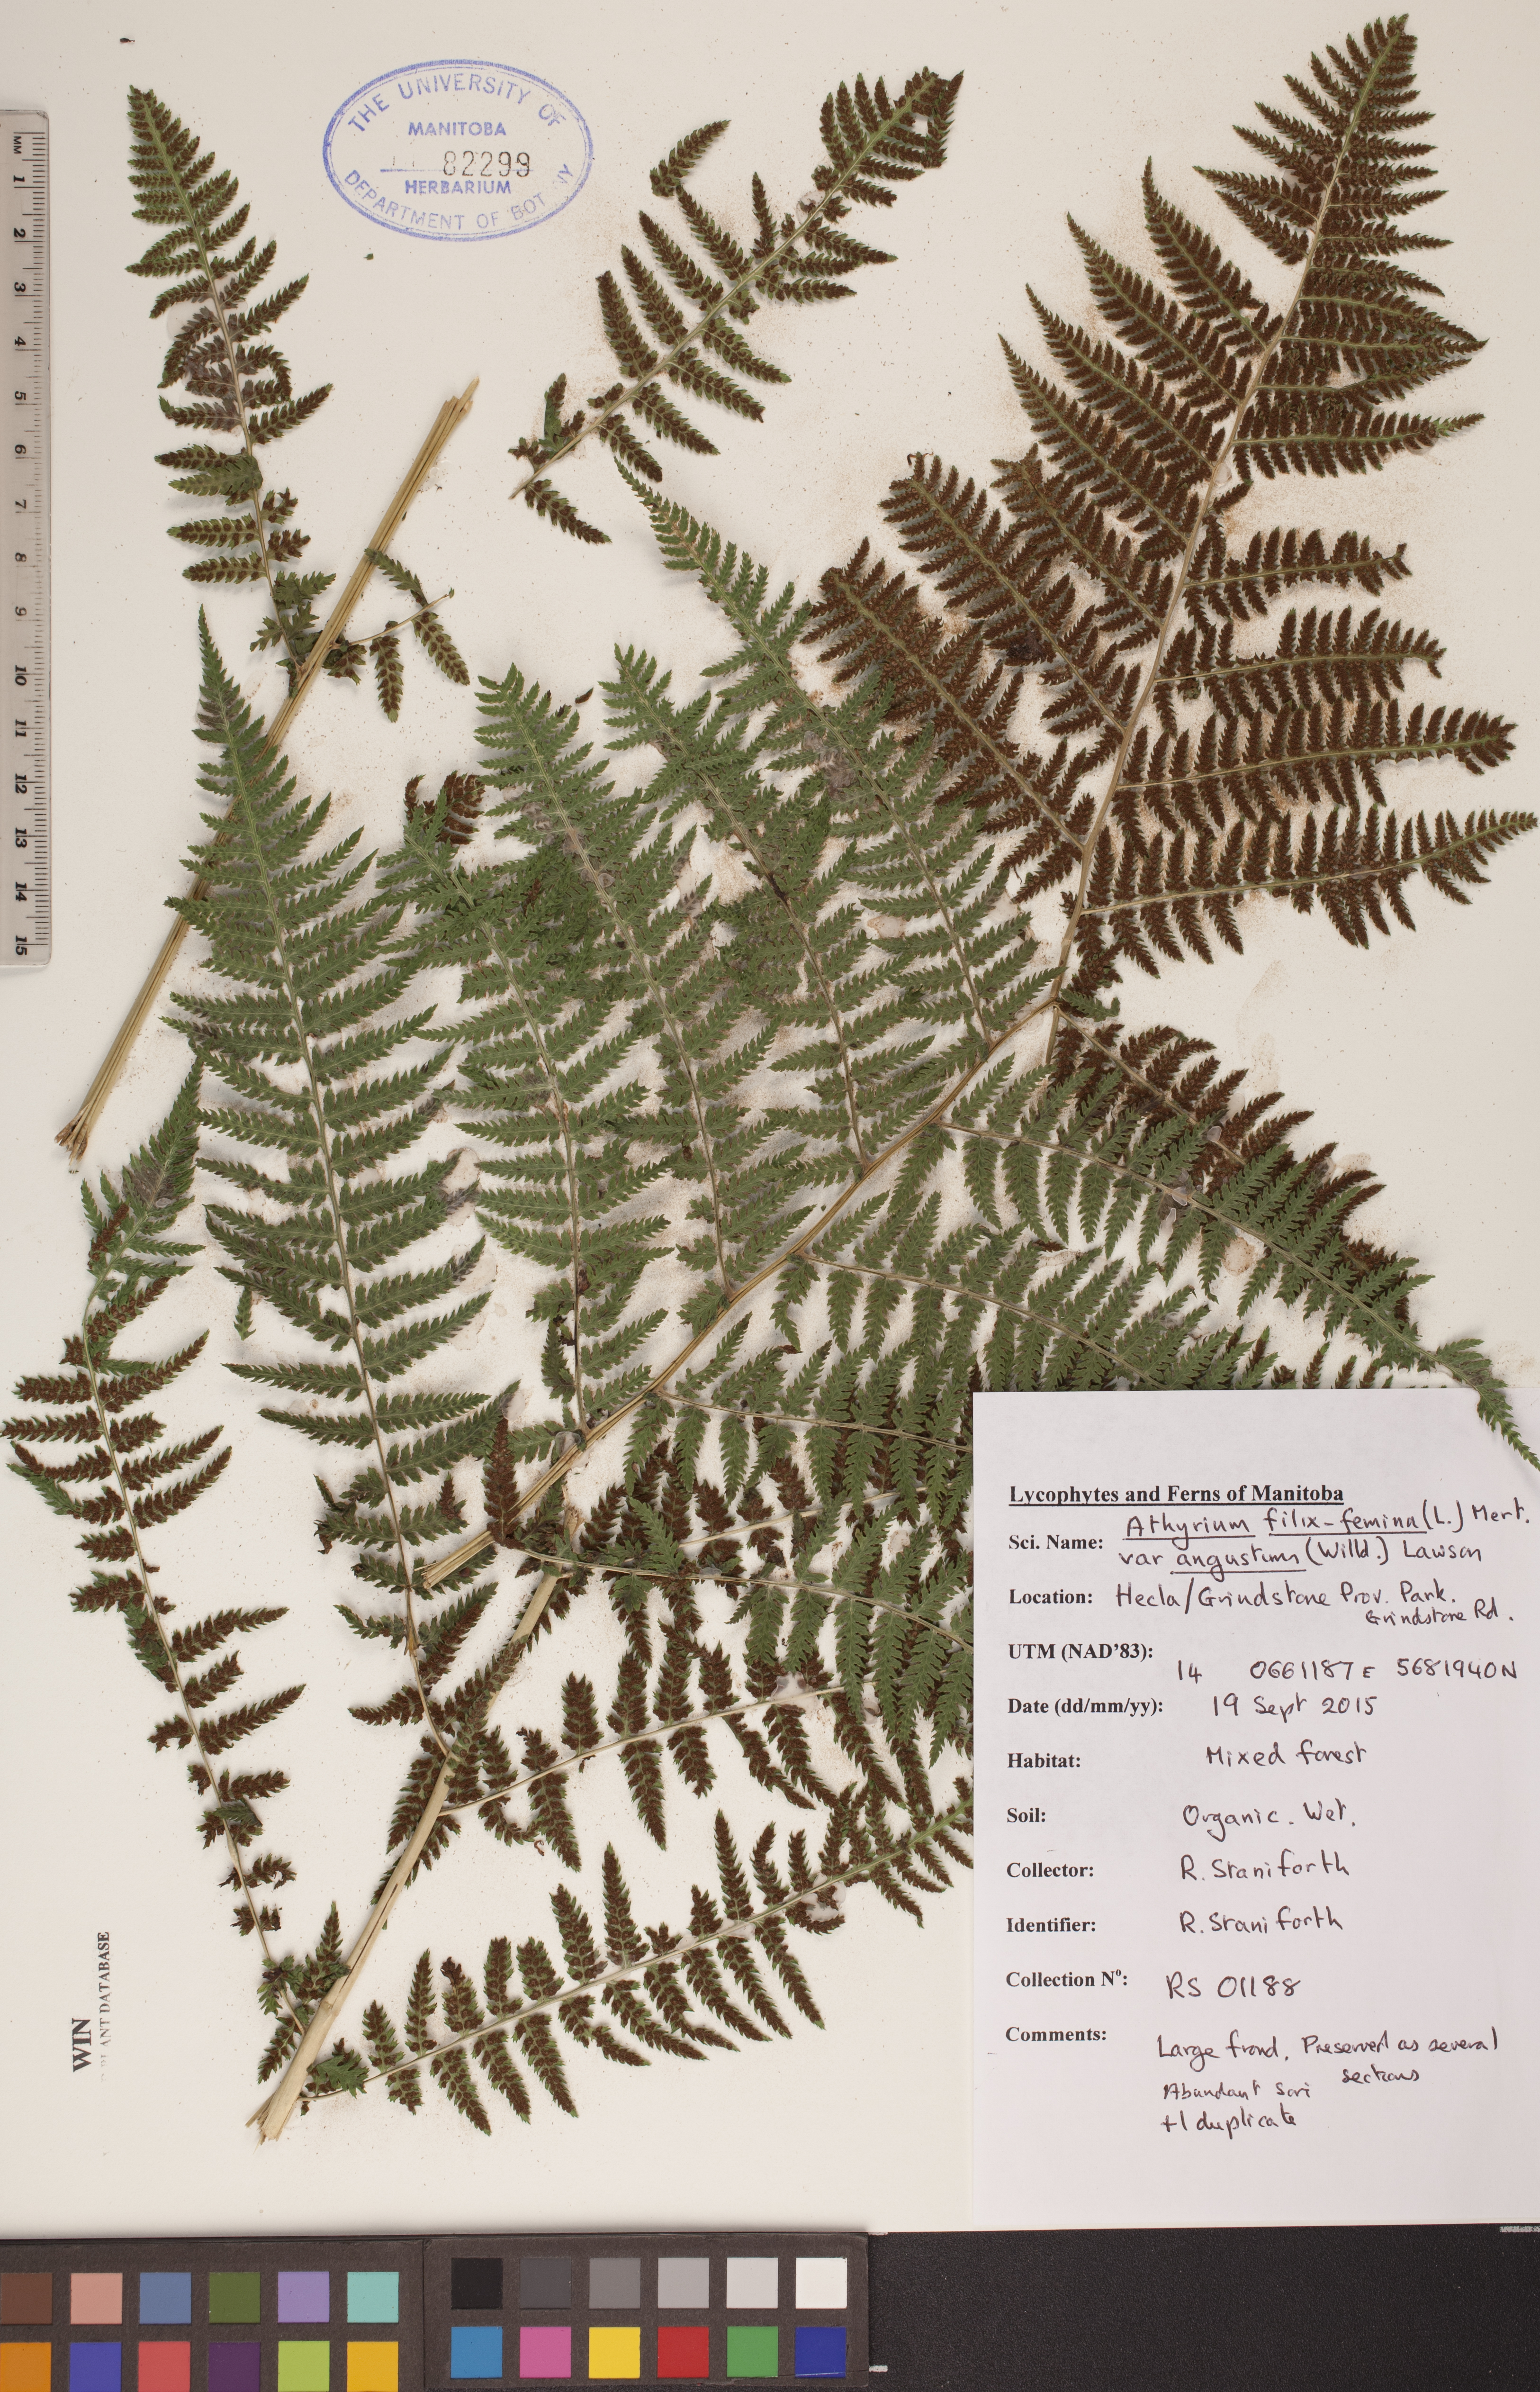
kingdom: Plantae
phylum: Tracheophyta
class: Polypodiopsida
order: Polypodiales
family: Athyriaceae
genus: Athyrium
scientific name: Athyrium angustum
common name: Northern lady fern
